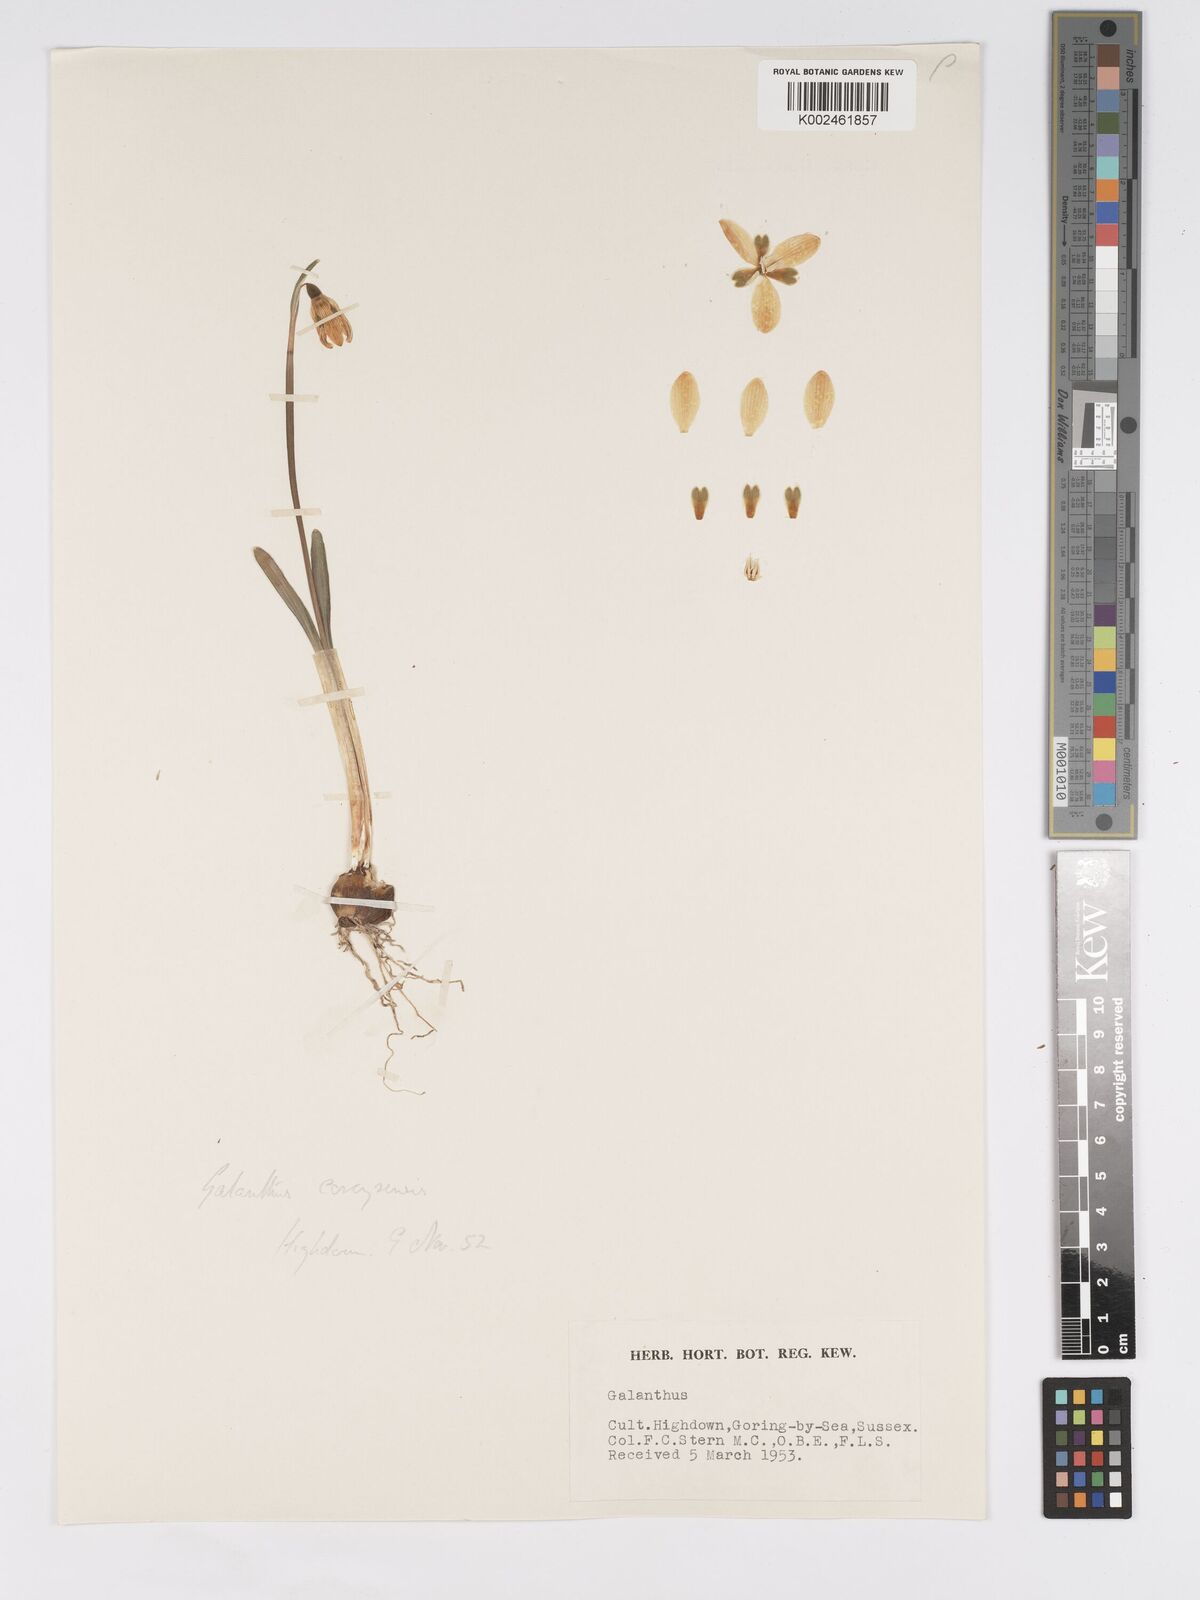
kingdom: Plantae
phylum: Tracheophyta
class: Liliopsida
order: Asparagales
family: Amaryllidaceae
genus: Galanthus
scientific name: Galanthus reginae-olgae
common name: Queen olga's snowdrop
